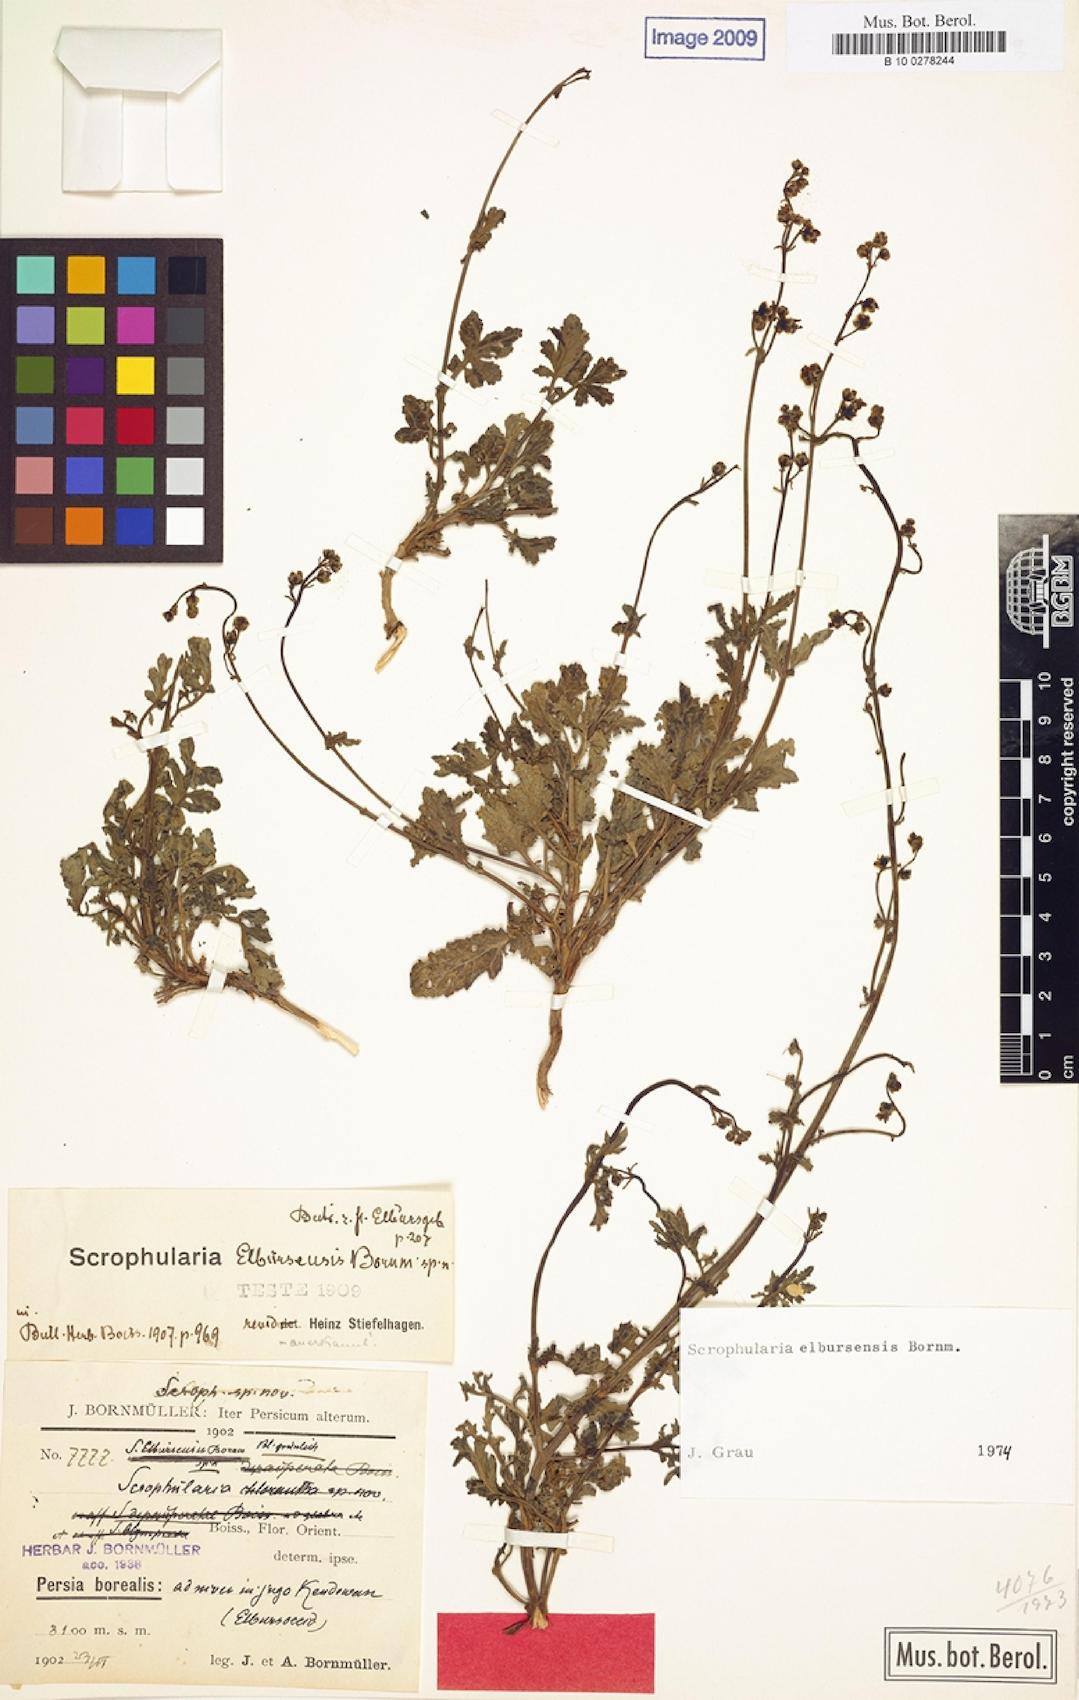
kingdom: Plantae
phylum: Tracheophyta
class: Magnoliopsida
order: Lamiales
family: Scrophulariaceae
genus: Scrophularia
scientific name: Scrophularia elbursensis
